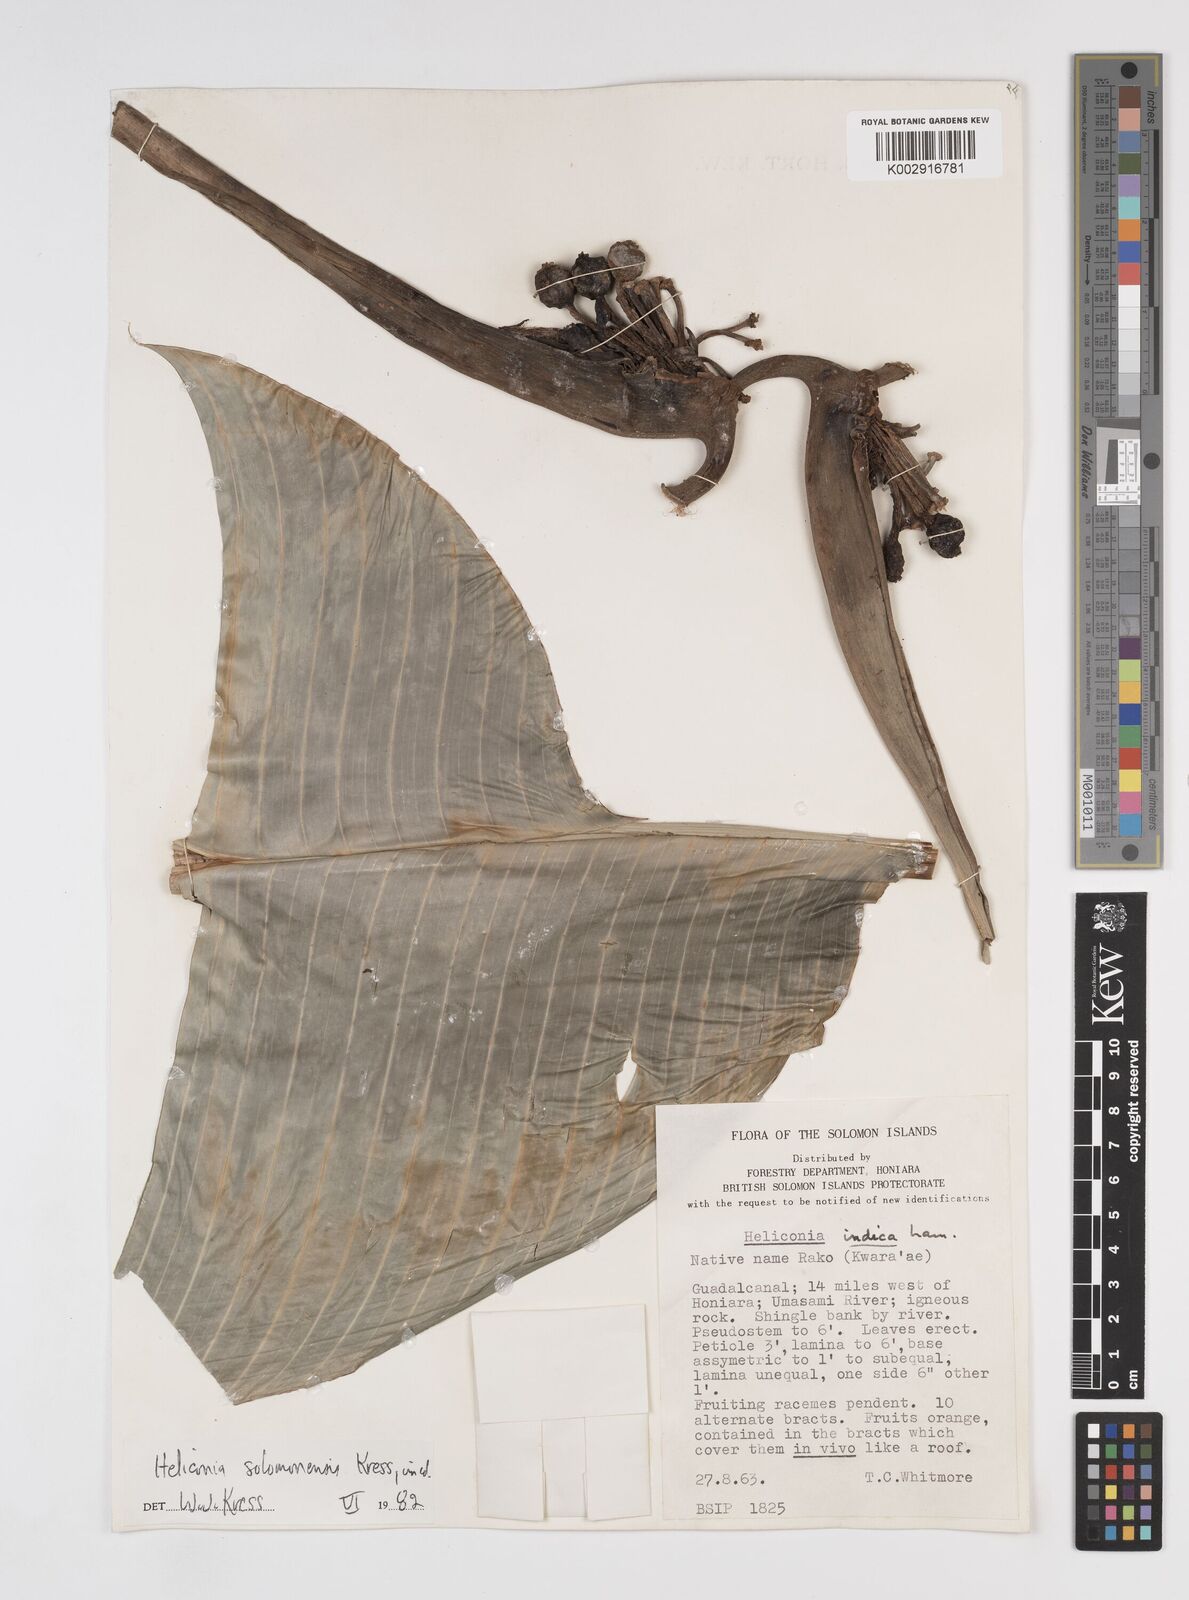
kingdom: Plantae
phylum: Tracheophyta
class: Liliopsida
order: Zingiberales
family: Heliconiaceae
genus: Heliconia
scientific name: Heliconia solomonensis
